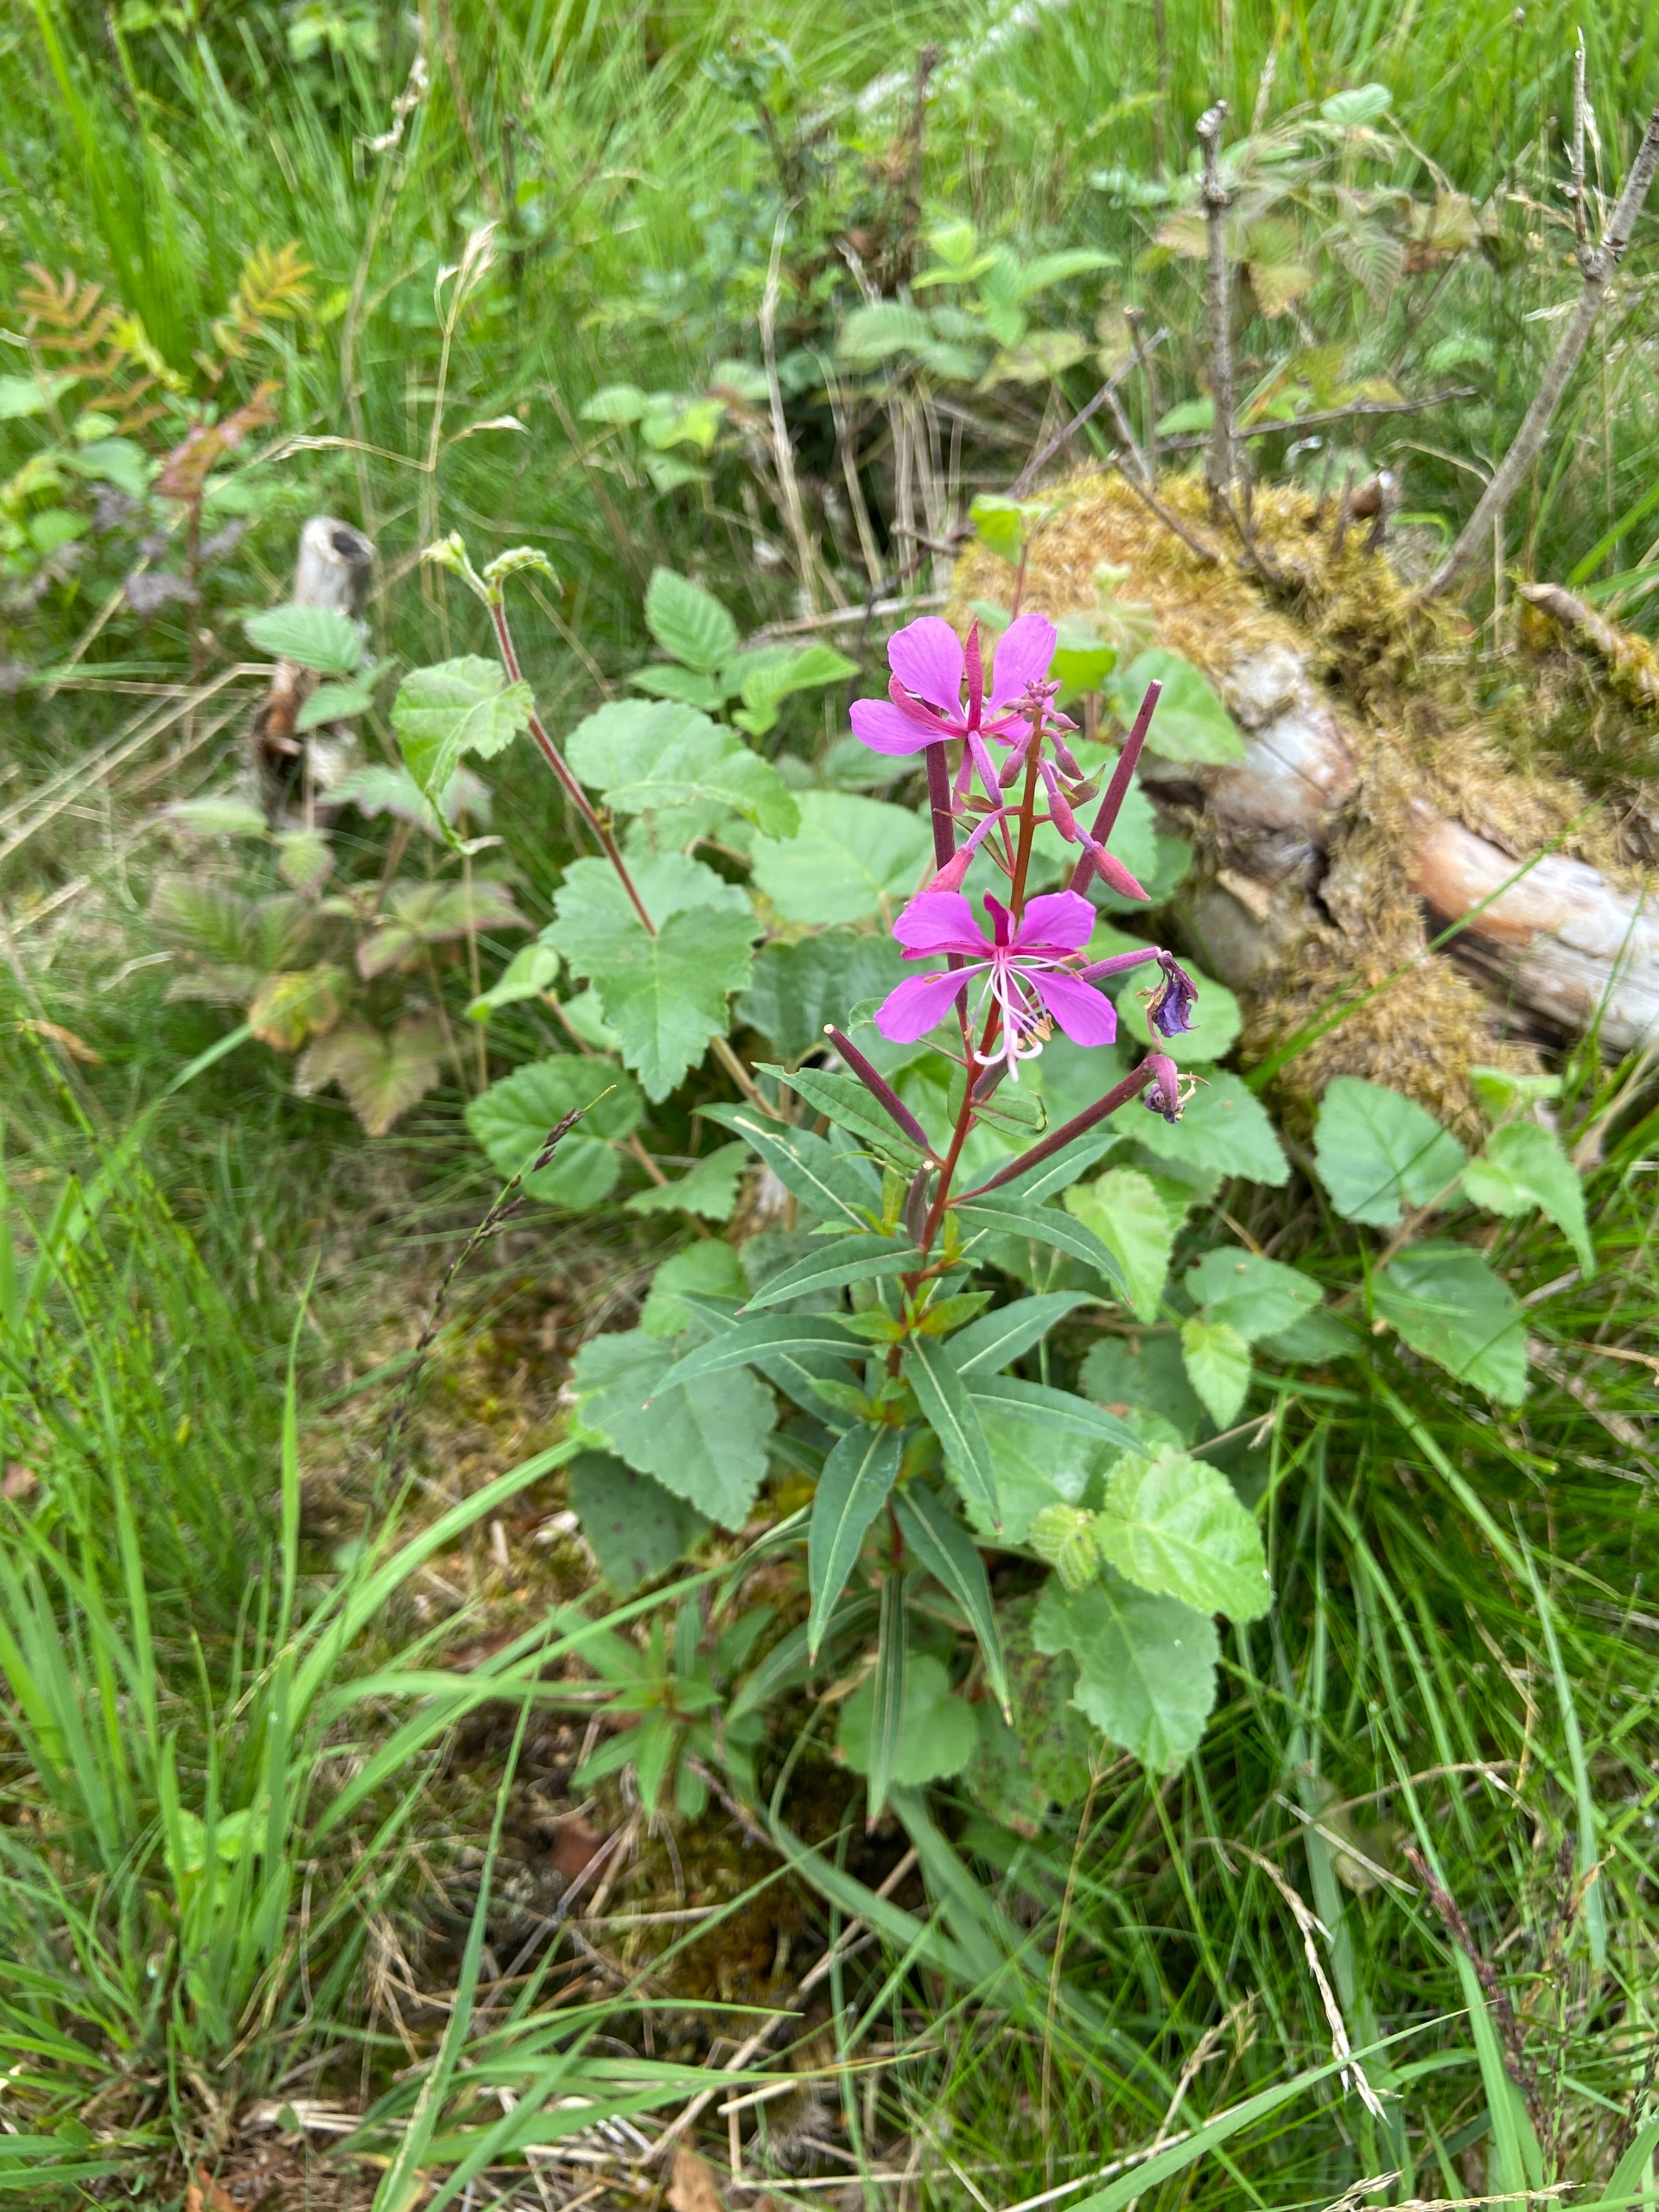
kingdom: Plantae
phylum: Tracheophyta
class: Magnoliopsida
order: Myrtales
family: Onagraceae
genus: Chamaenerion
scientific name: Chamaenerion angustifolium
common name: Gederams
